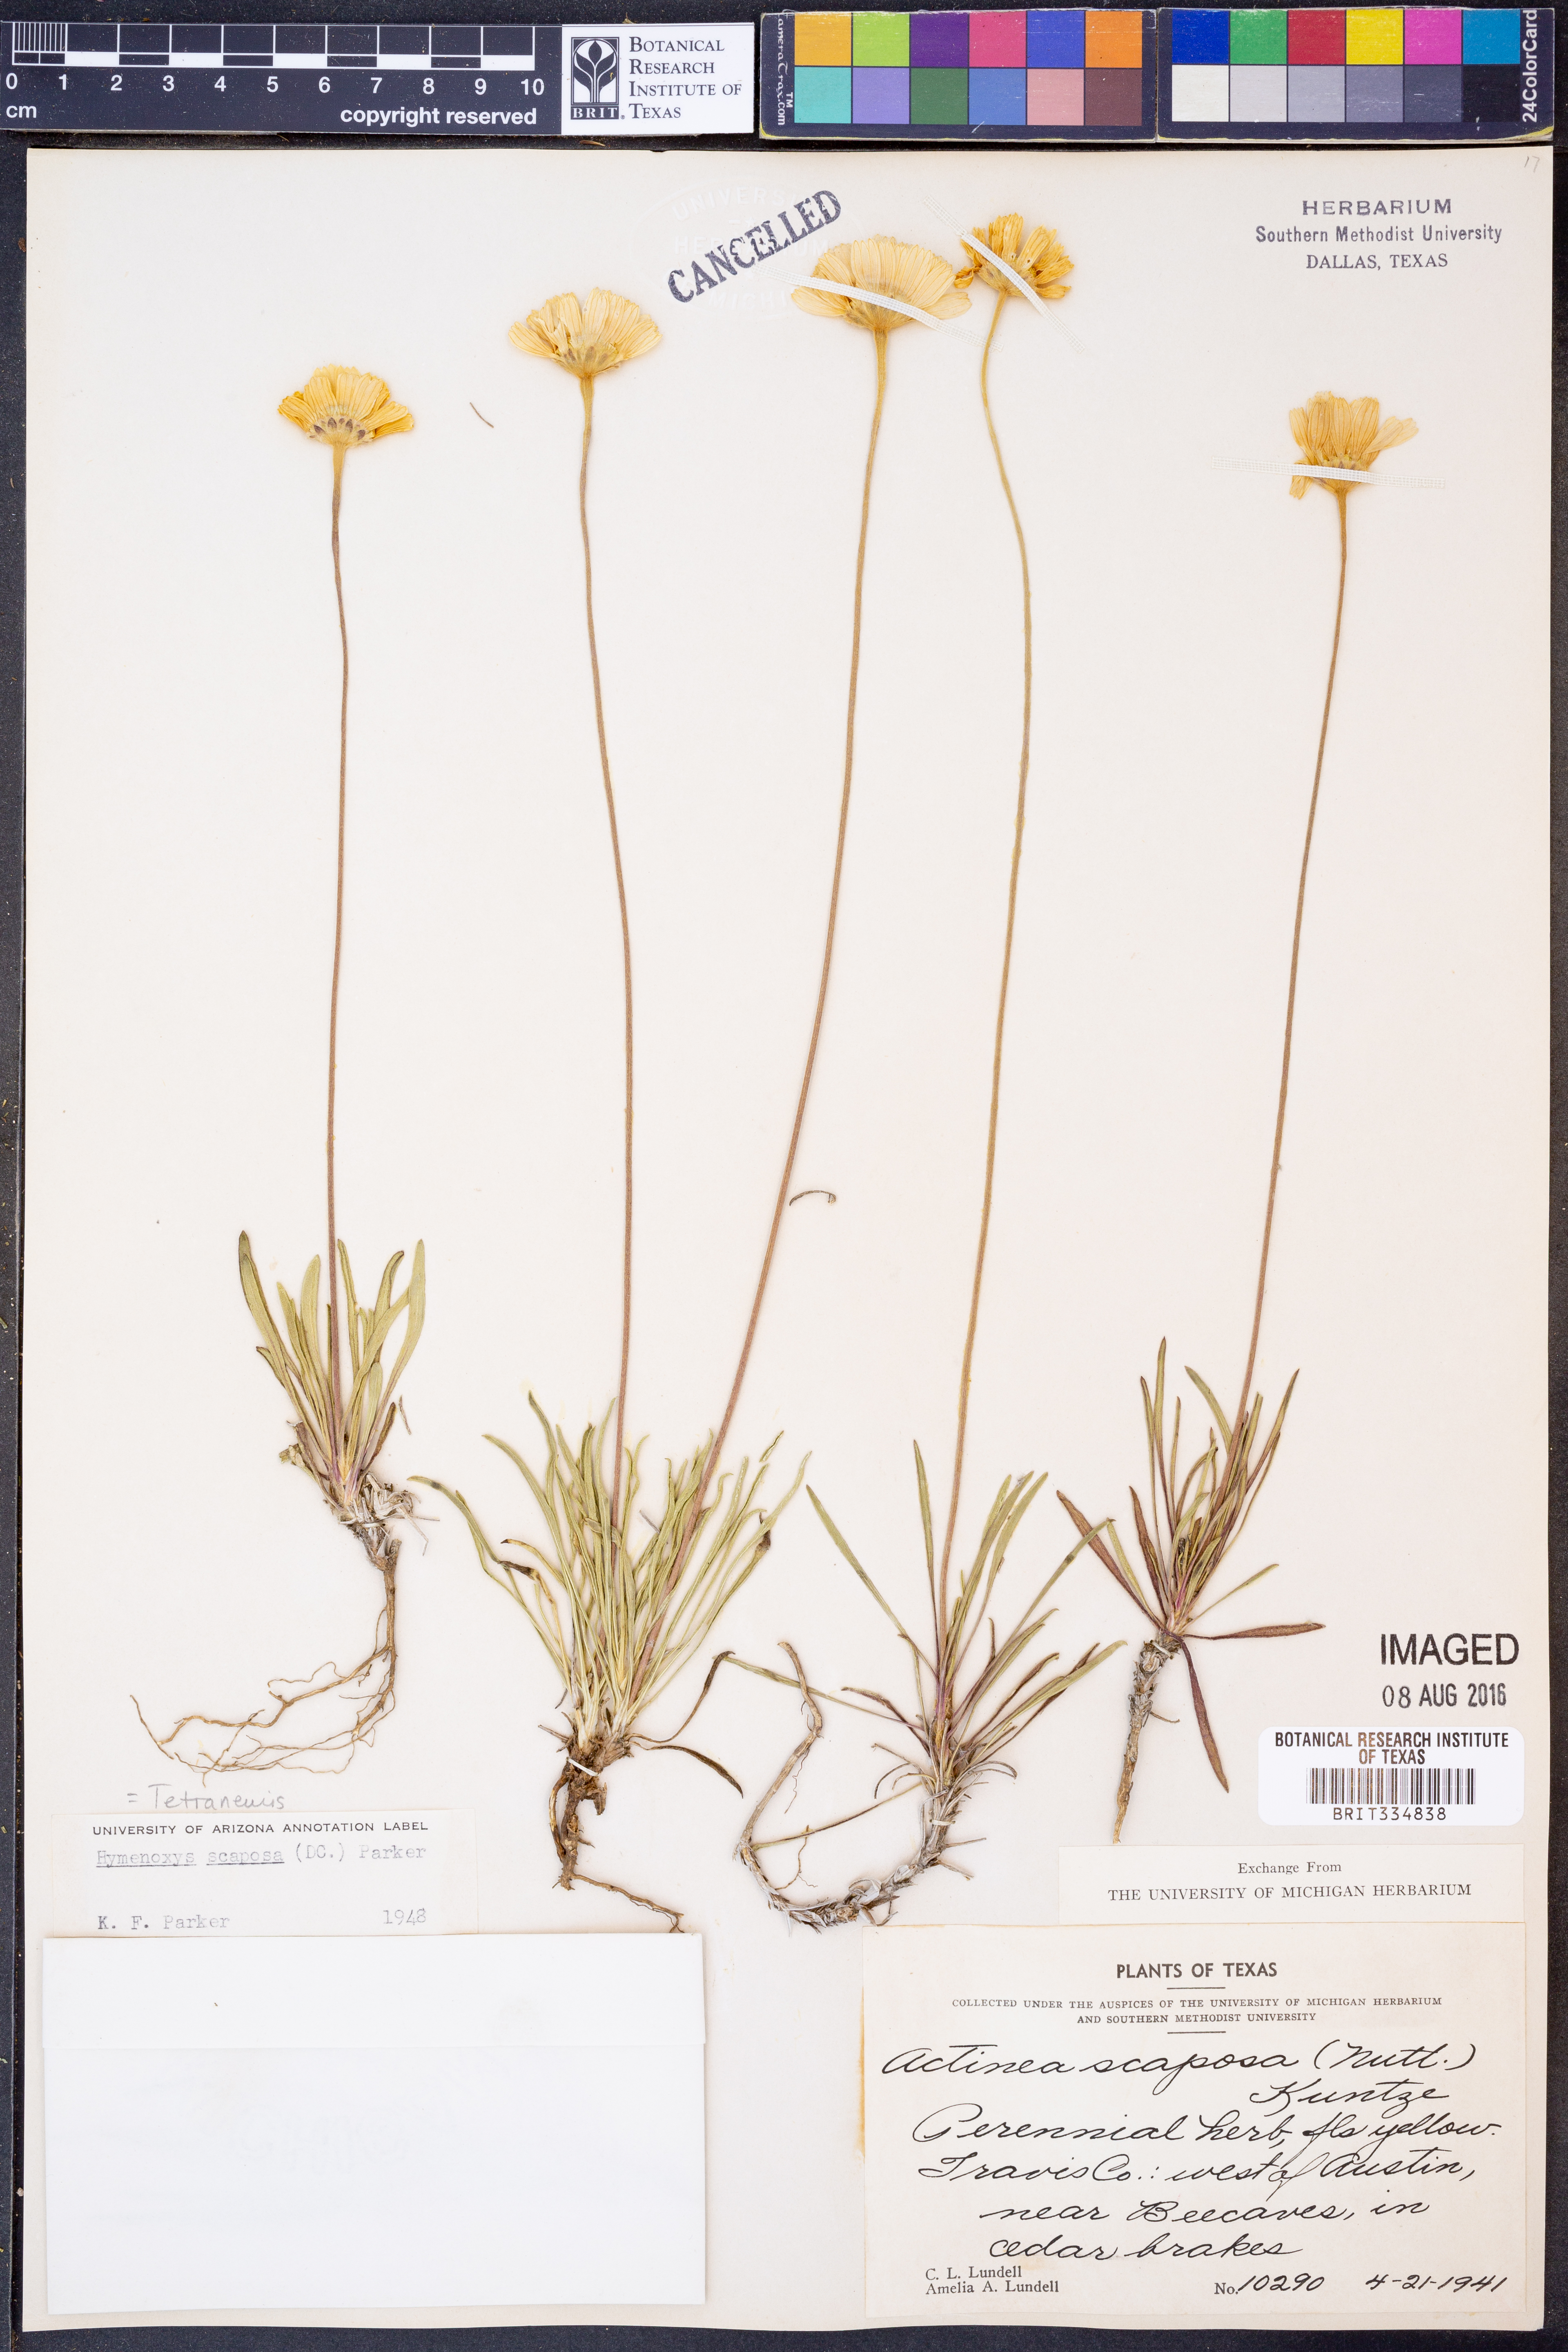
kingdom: Plantae
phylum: Tracheophyta
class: Magnoliopsida
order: Asterales
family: Asteraceae
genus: Tetraneuris
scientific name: Tetraneuris scaposa
